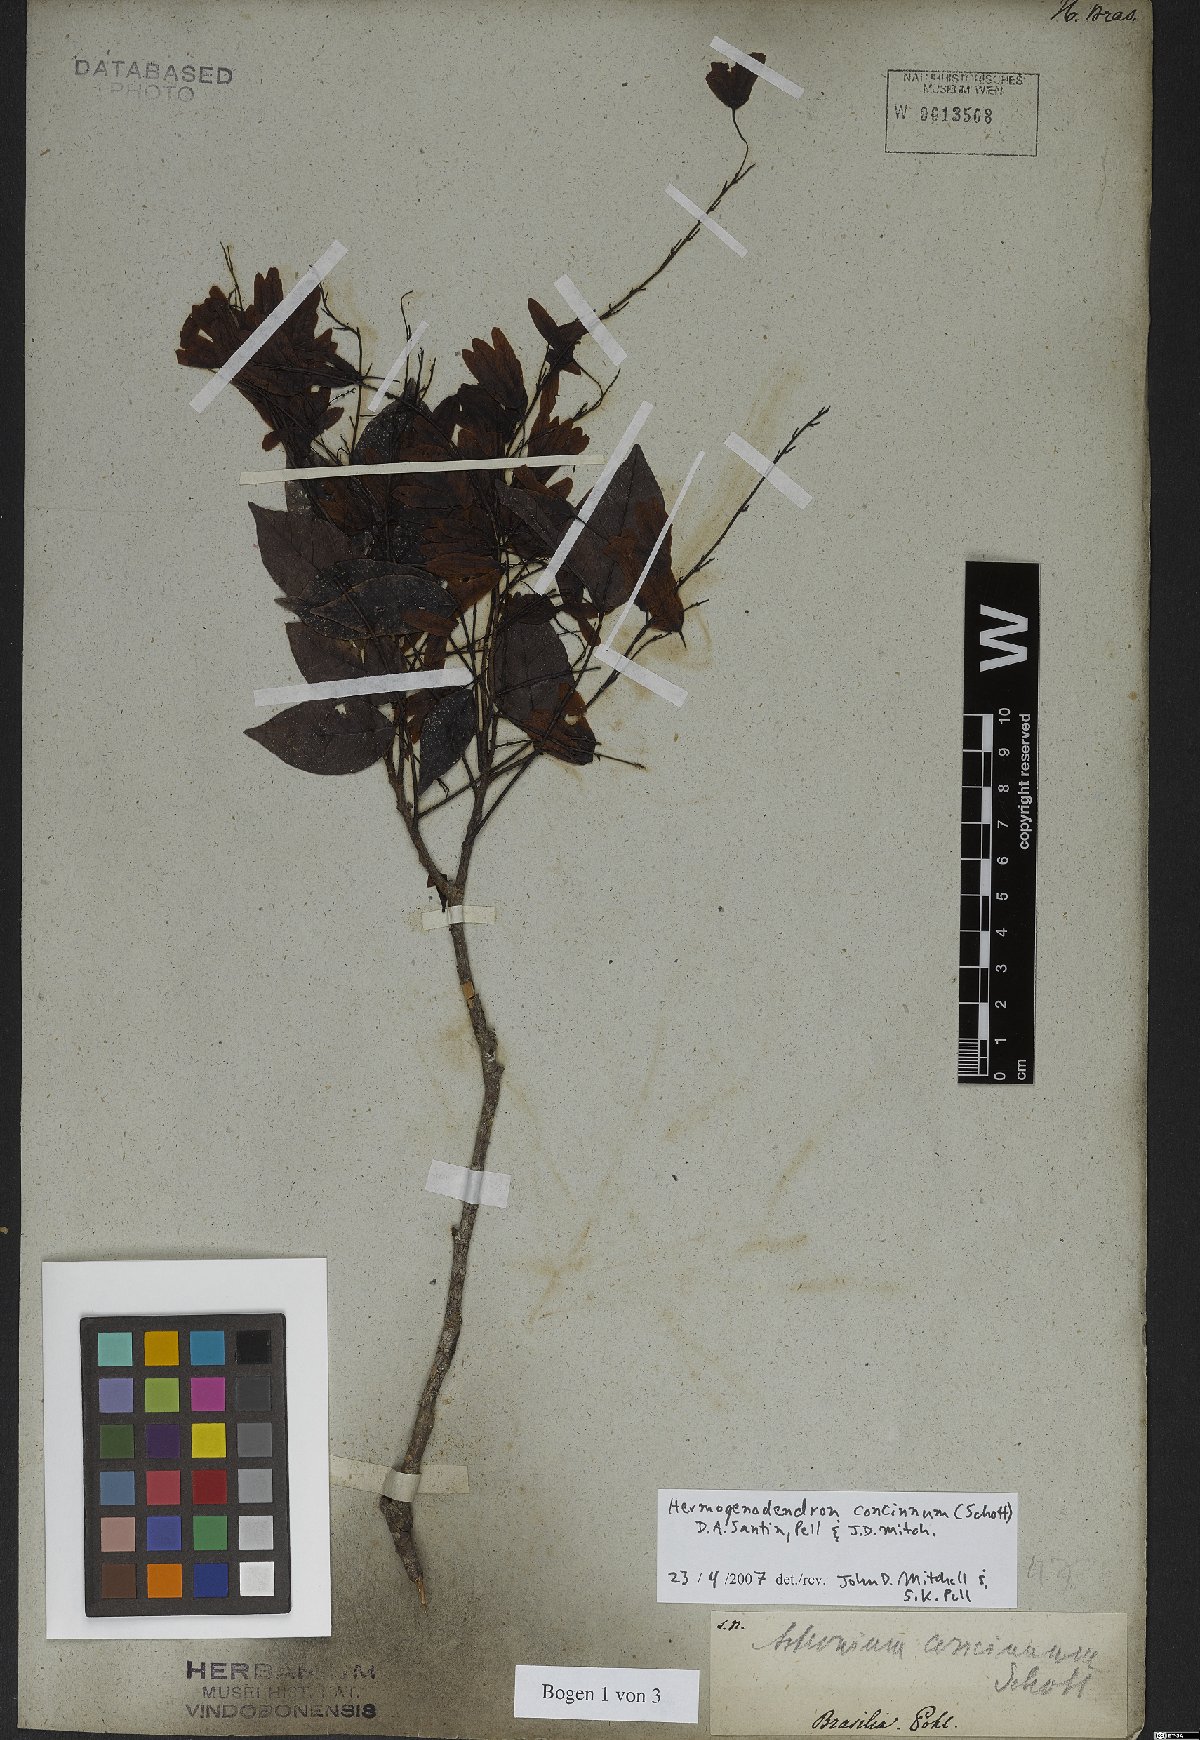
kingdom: Plantae
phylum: Tracheophyta
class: Magnoliopsida
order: Sapindales
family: Anacardiaceae
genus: Astronium
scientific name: Astronium concinnum
